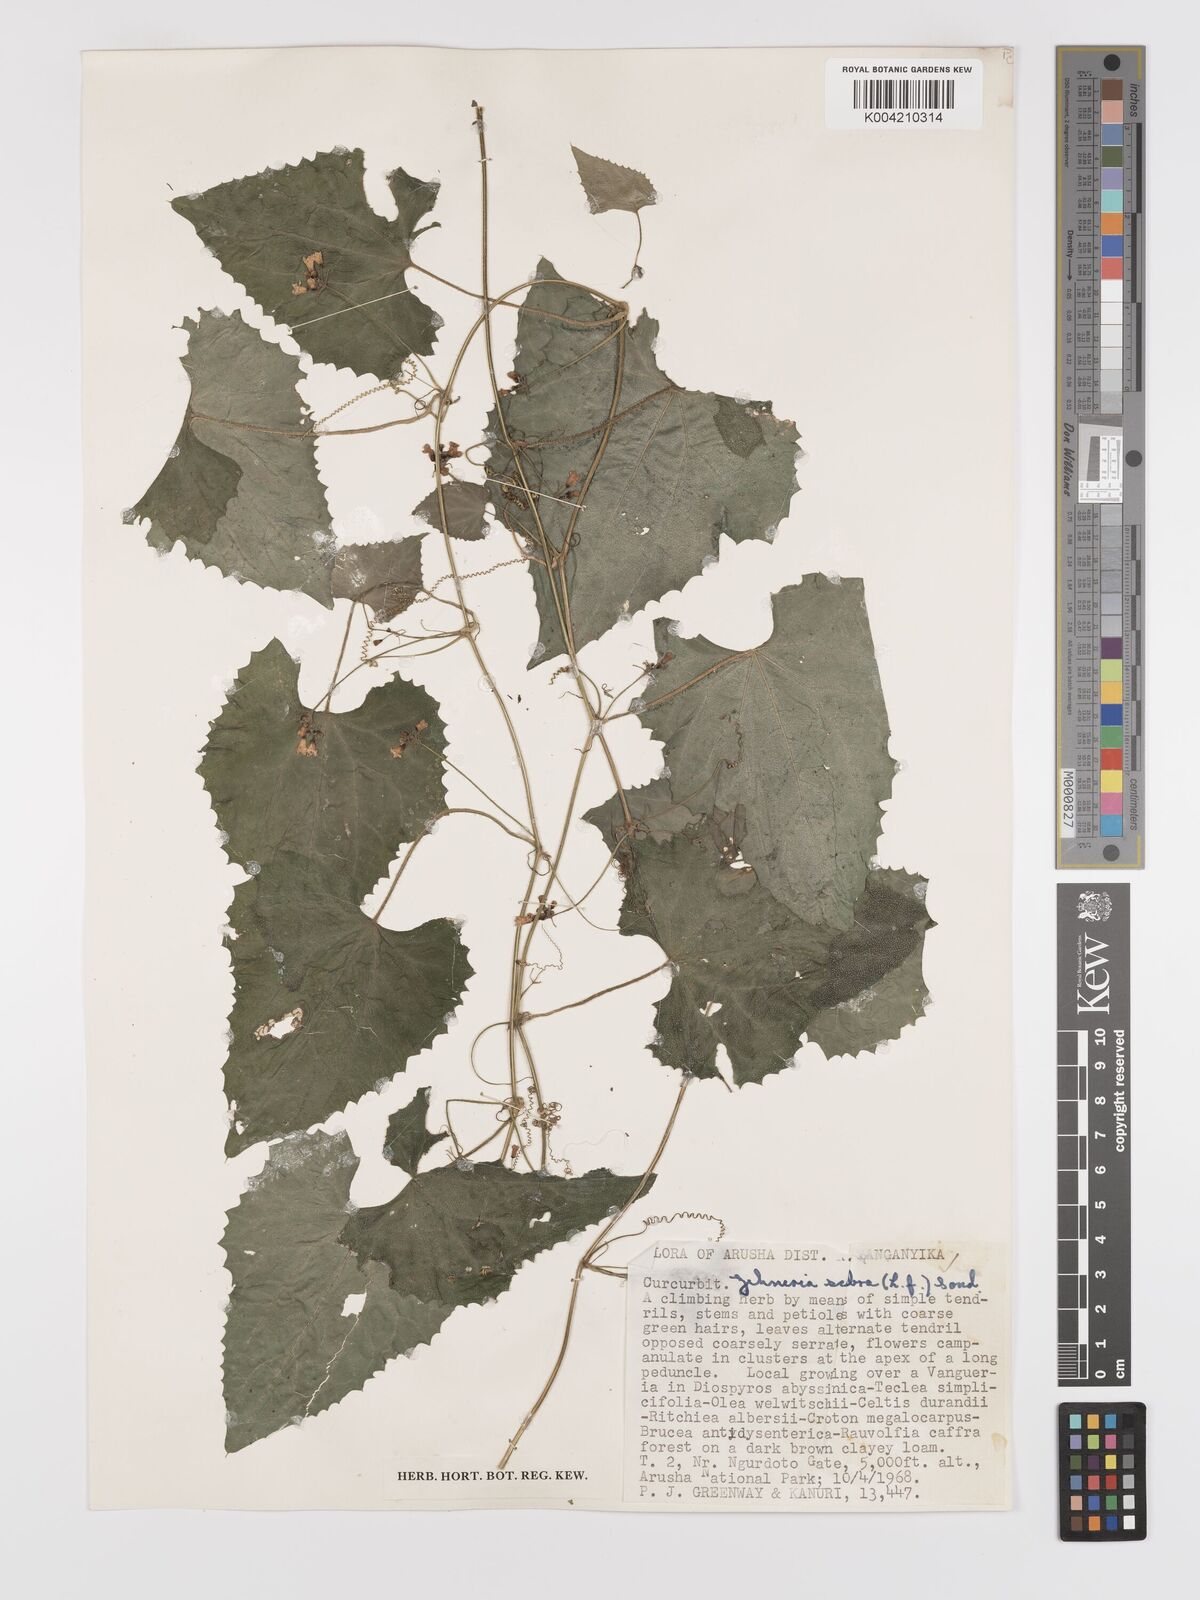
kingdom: Plantae
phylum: Tracheophyta
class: Magnoliopsida
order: Cucurbitales
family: Cucurbitaceae
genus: Zehneria
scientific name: Zehneria scabra
